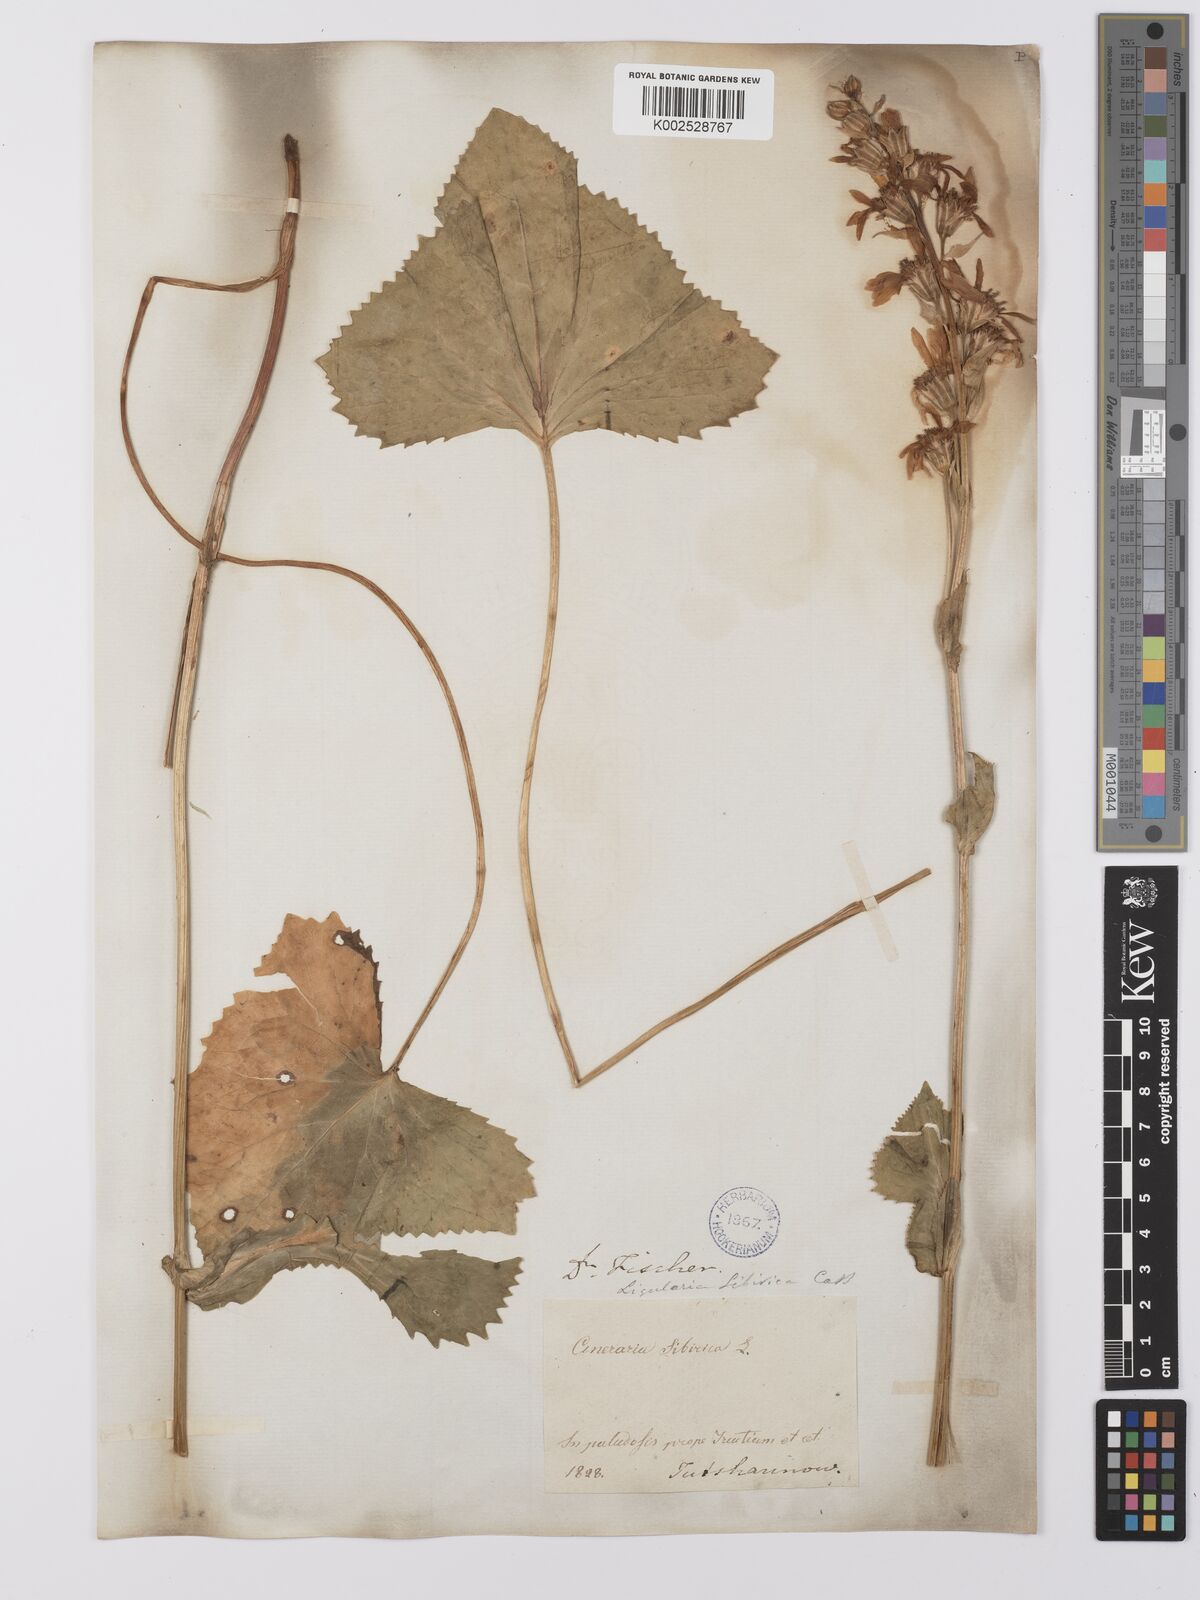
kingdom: Plantae
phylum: Tracheophyta
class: Magnoliopsida
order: Asterales
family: Asteraceae
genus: Ligularia
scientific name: Ligularia sibirica
